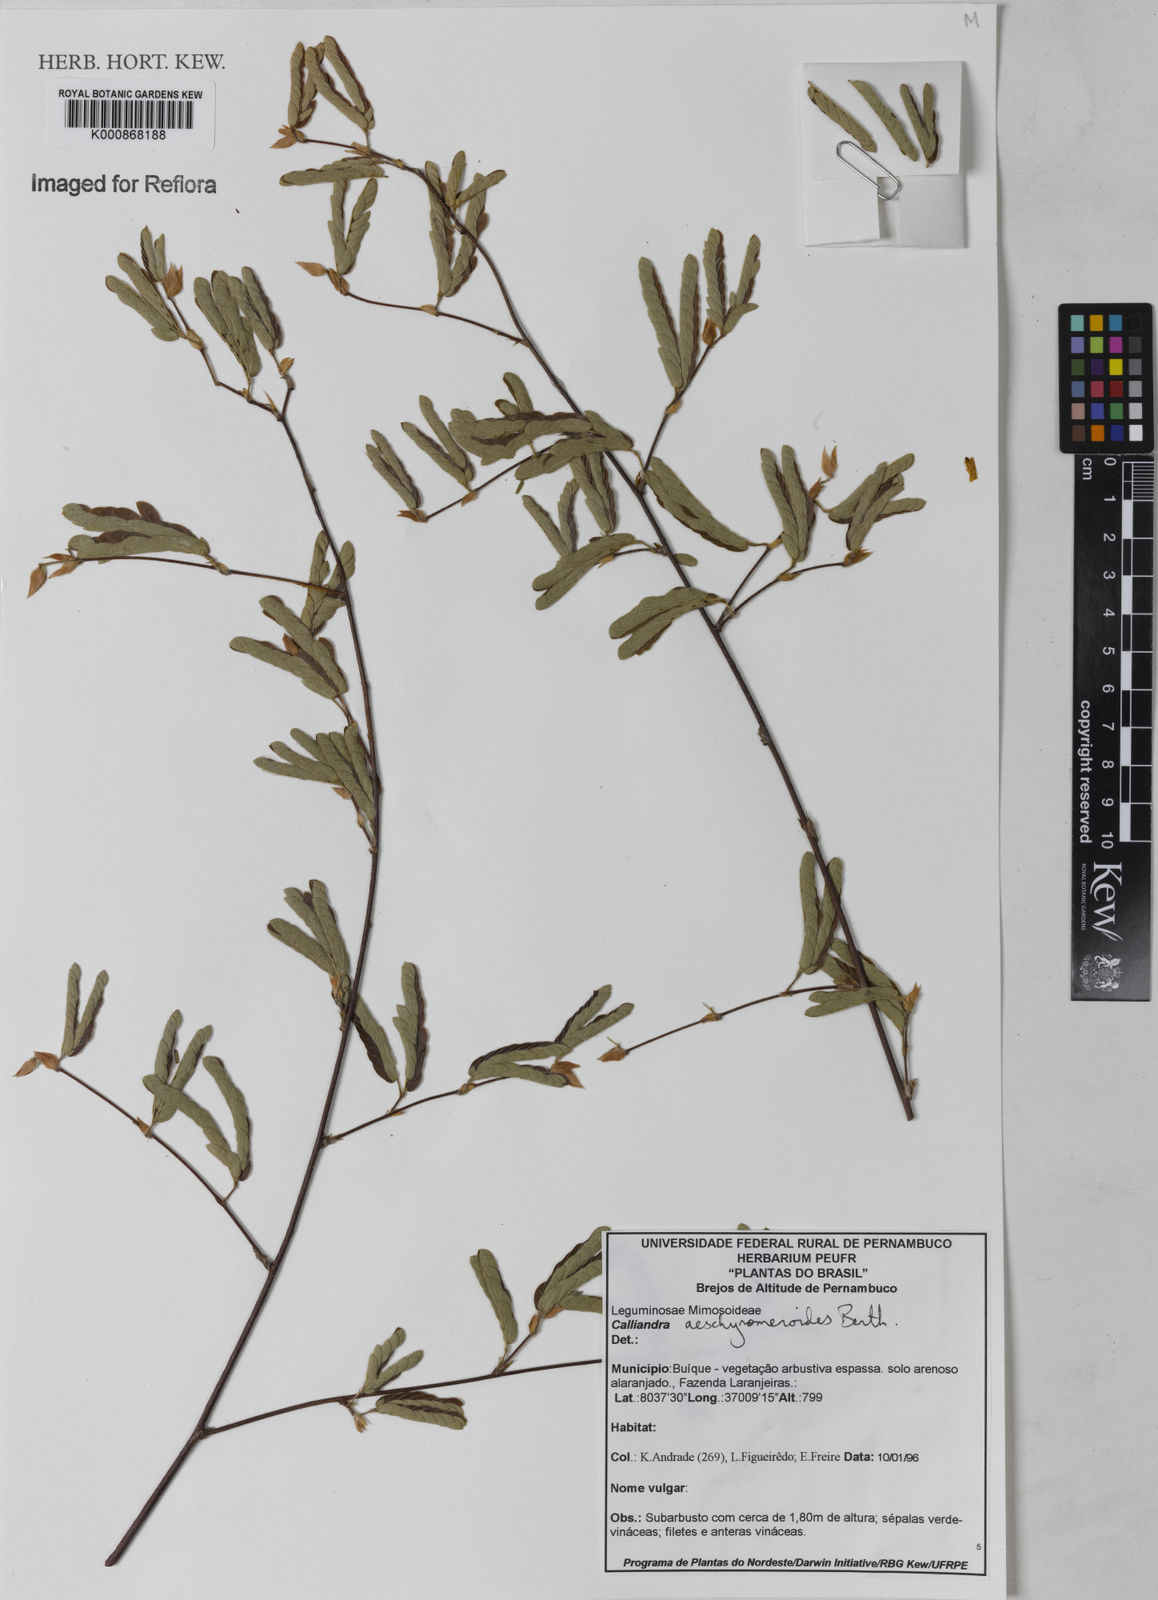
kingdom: Plantae
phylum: Tracheophyta
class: Magnoliopsida
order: Fabales
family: Fabaceae
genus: Calliandra
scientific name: Calliandra aeschynomenoides
